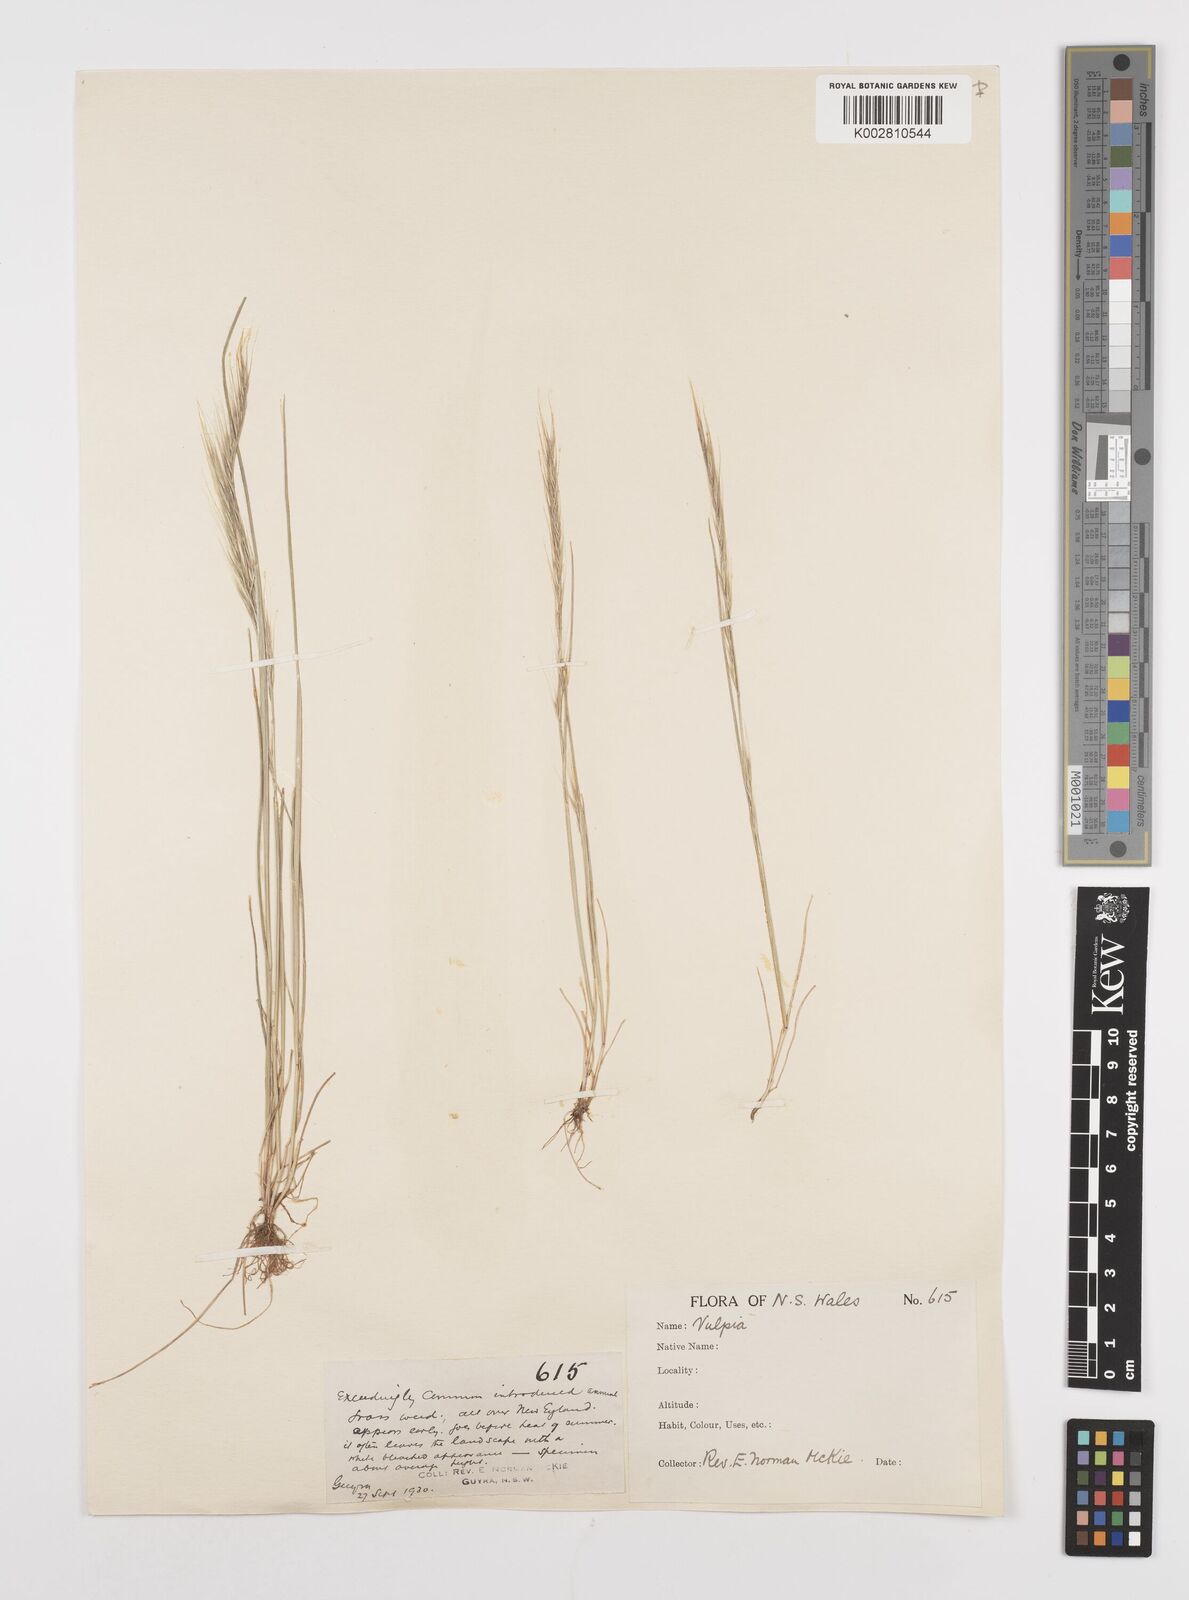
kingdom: Plantae
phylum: Tracheophyta
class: Liliopsida
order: Poales
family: Poaceae
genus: Festuca
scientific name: Festuca myuros
